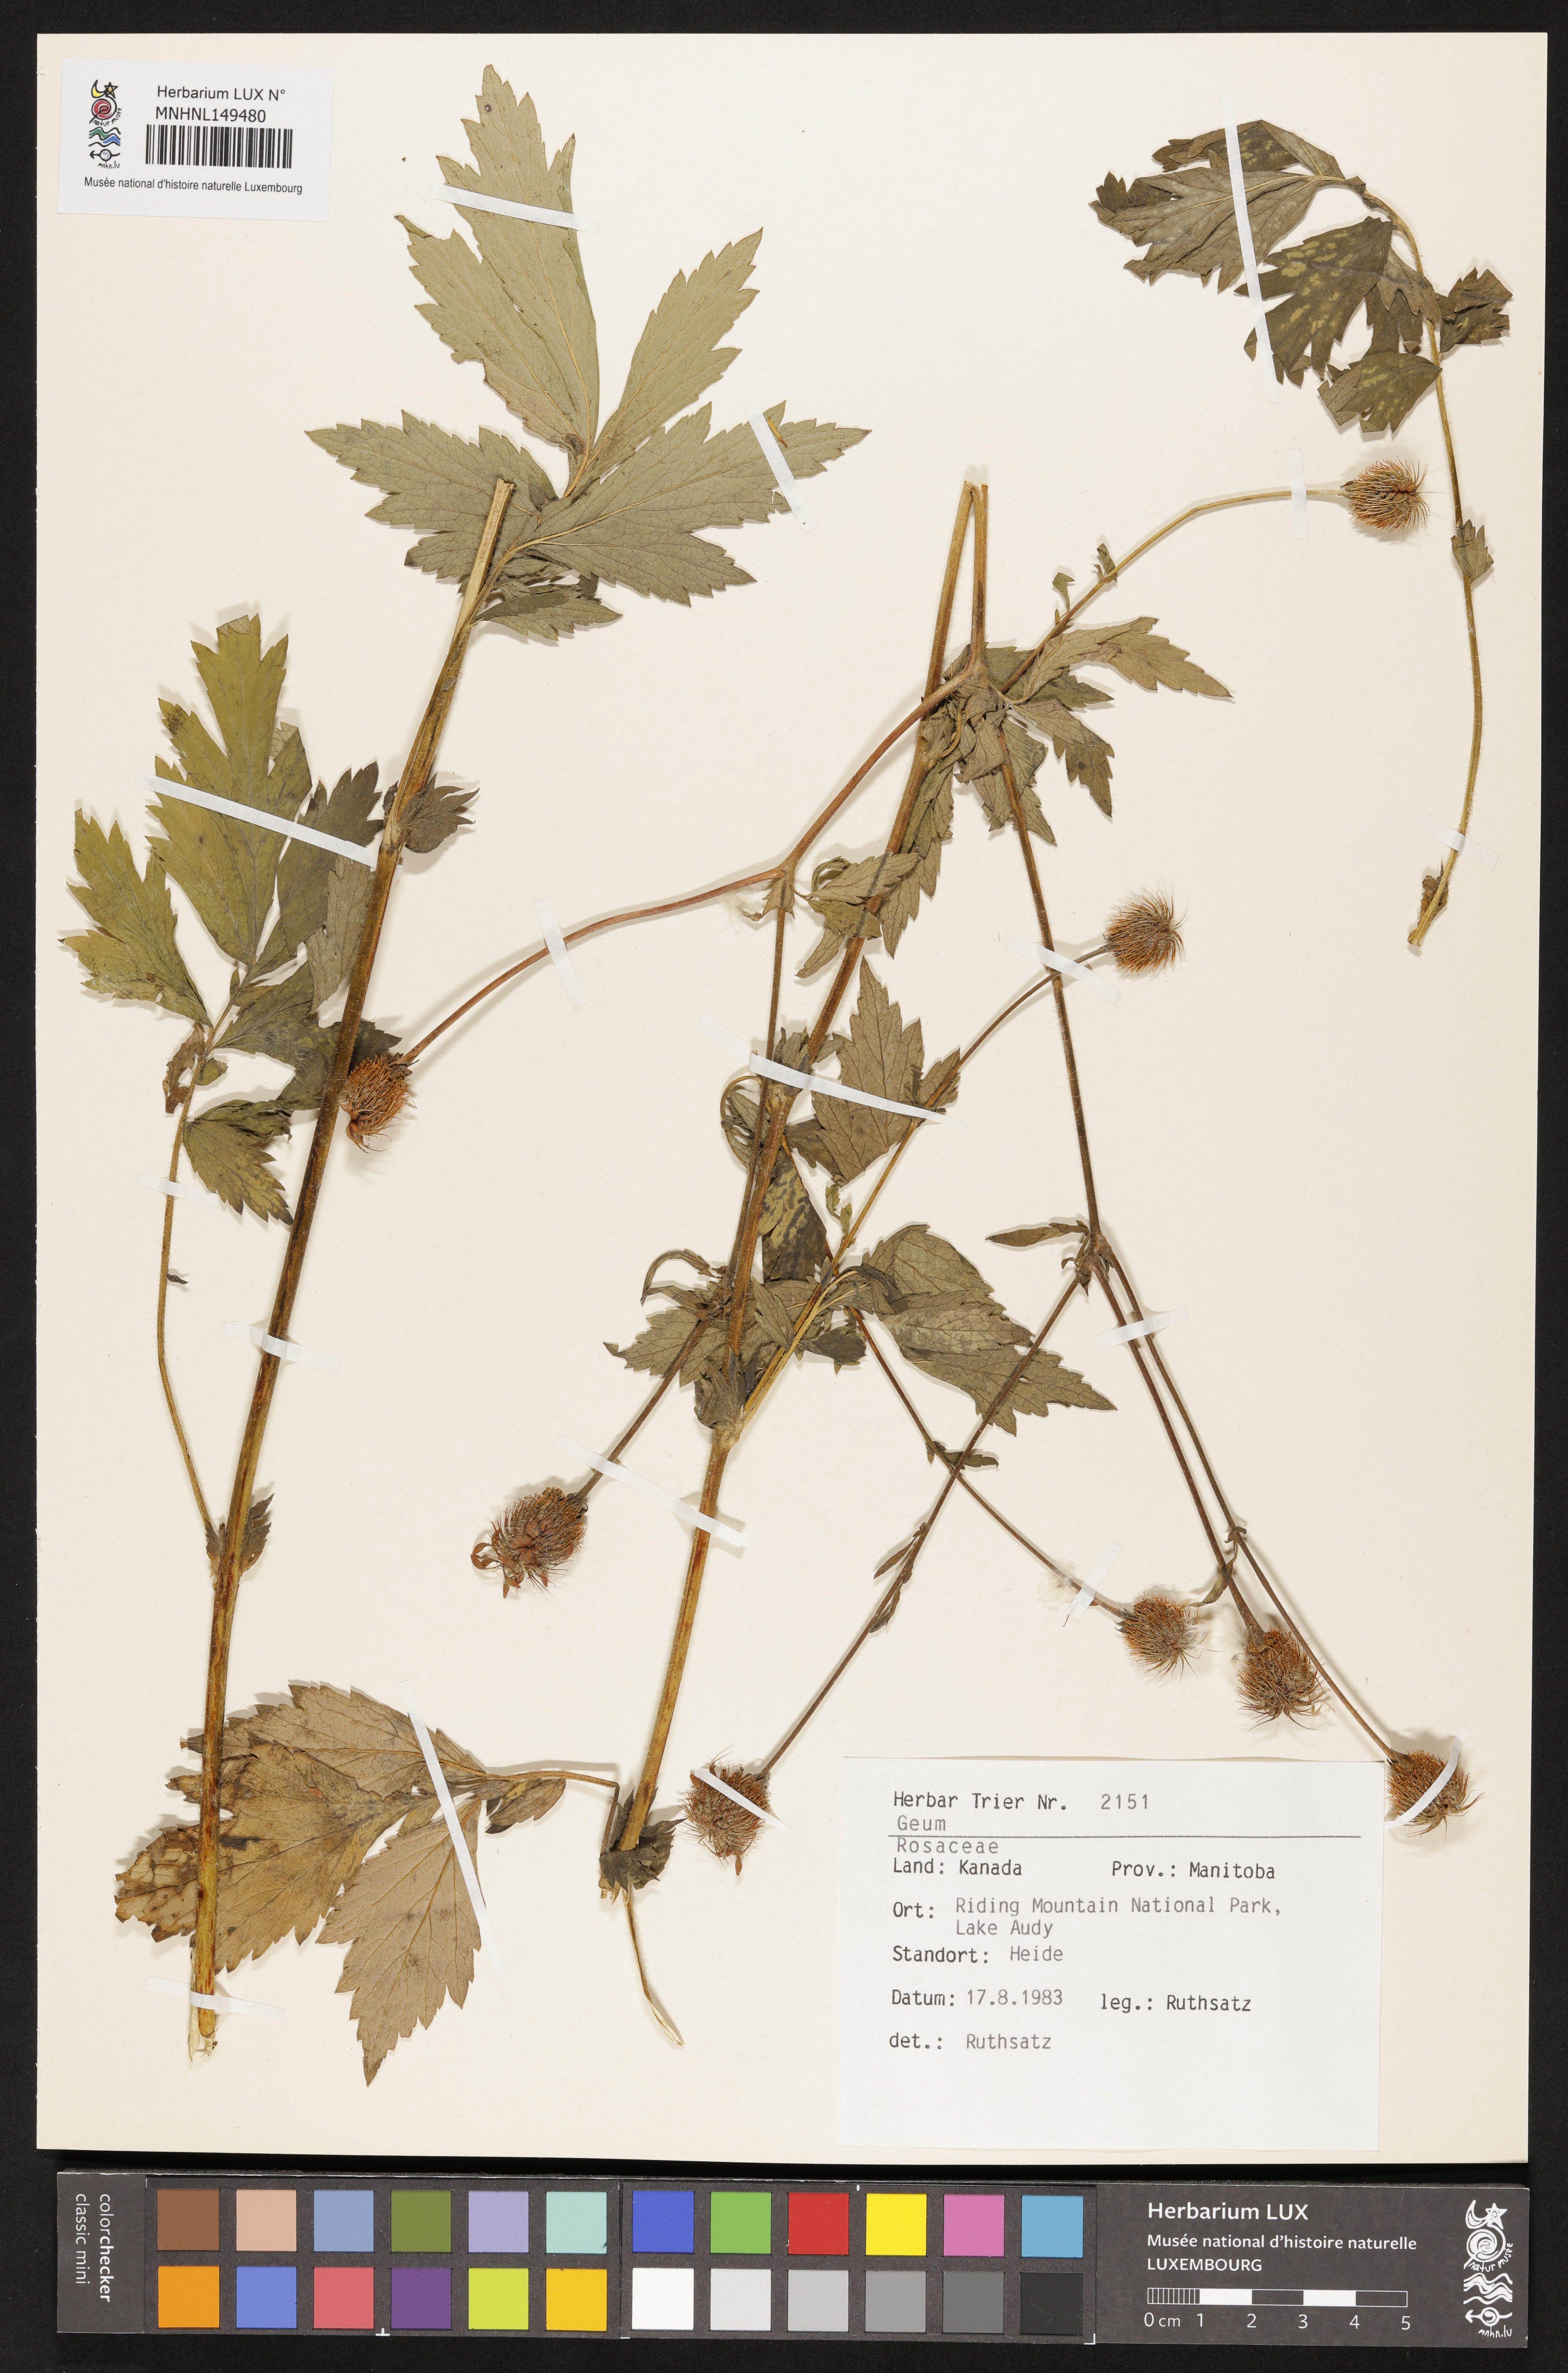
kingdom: Plantae
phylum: Tracheophyta
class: Magnoliopsida
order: Rosales
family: Rosaceae
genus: Geum
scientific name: Geum
